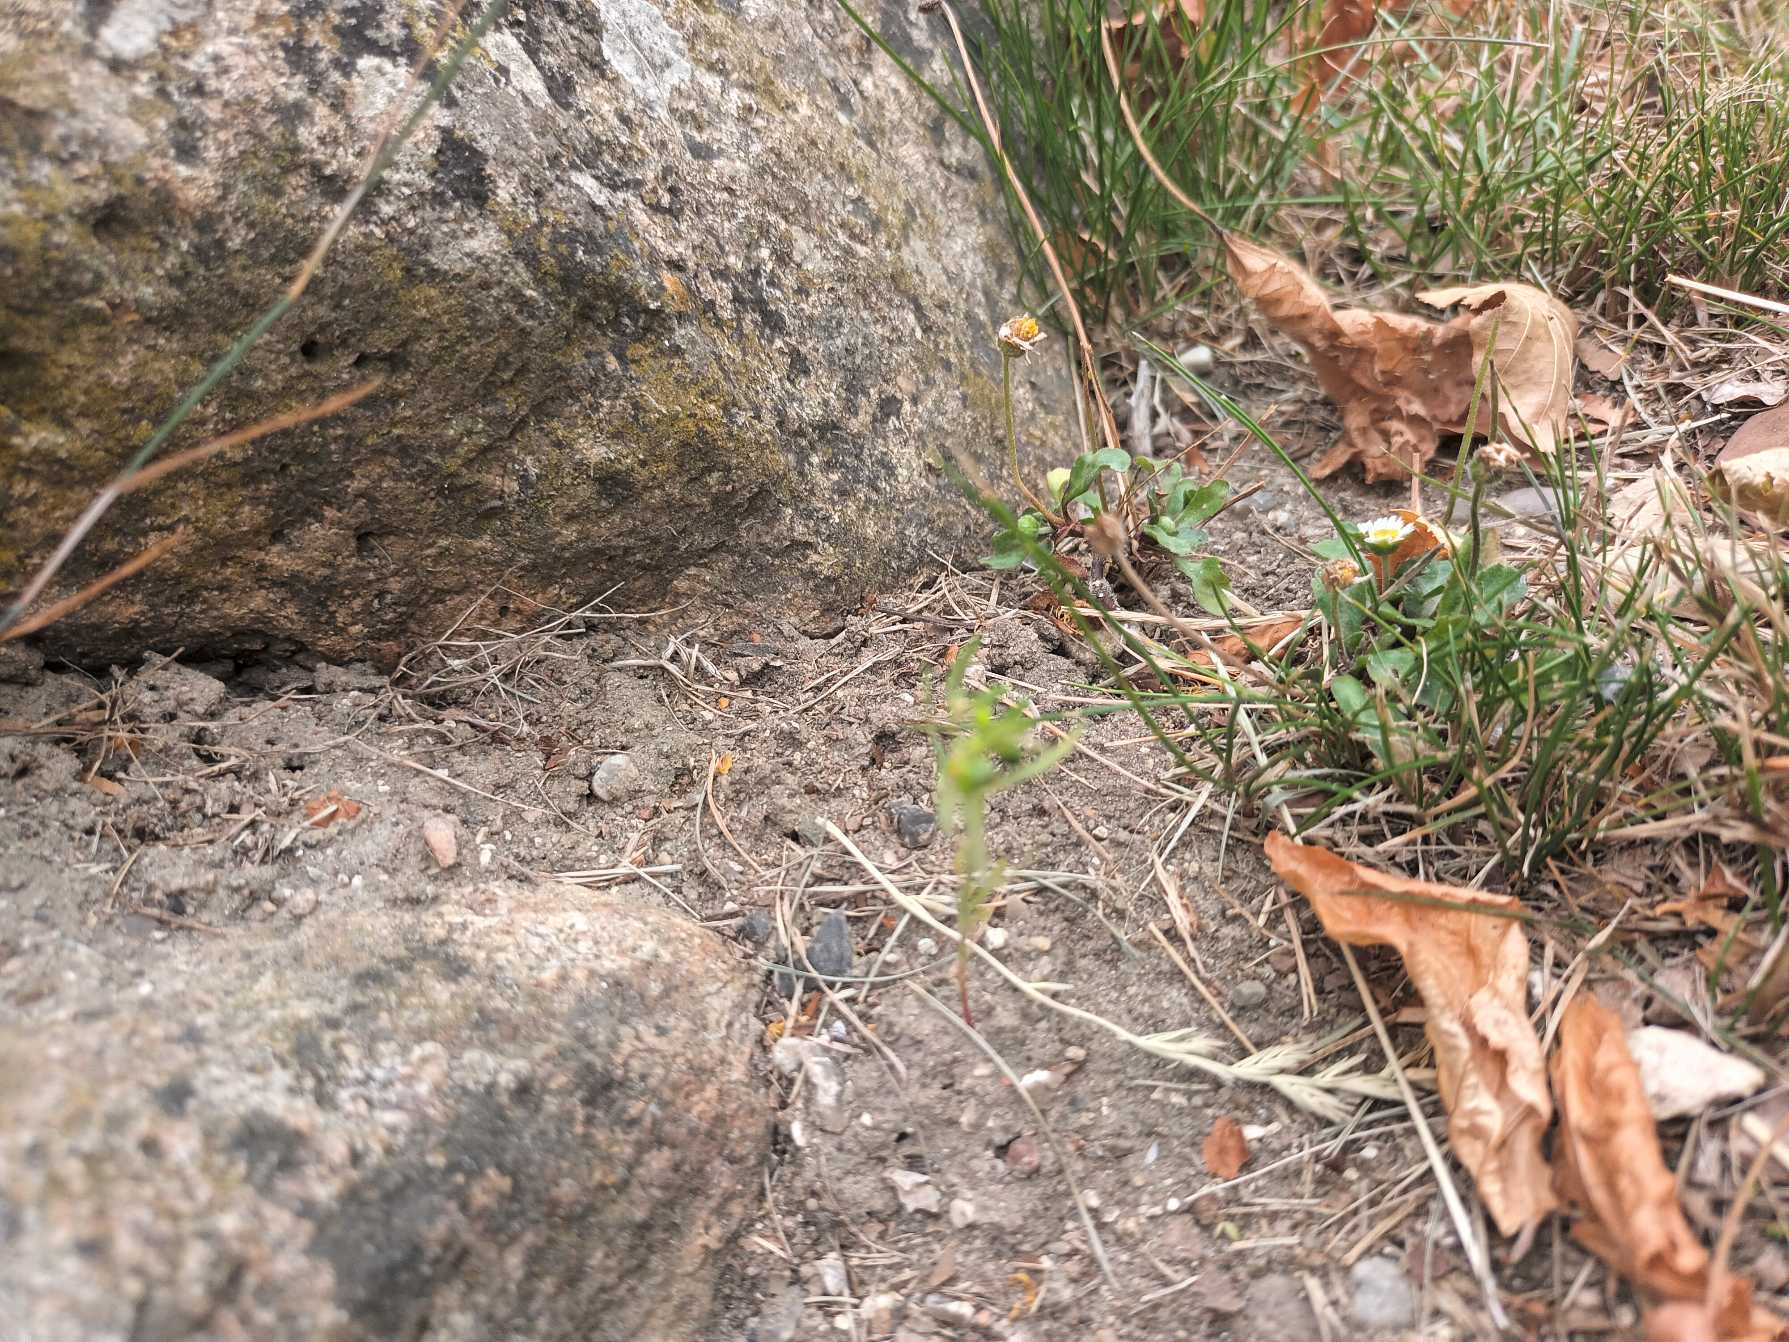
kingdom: Plantae
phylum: Tracheophyta
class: Magnoliopsida
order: Malpighiales
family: Euphorbiaceae
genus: Euphorbia
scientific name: Euphorbia exigua
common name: Liden vortemælk
